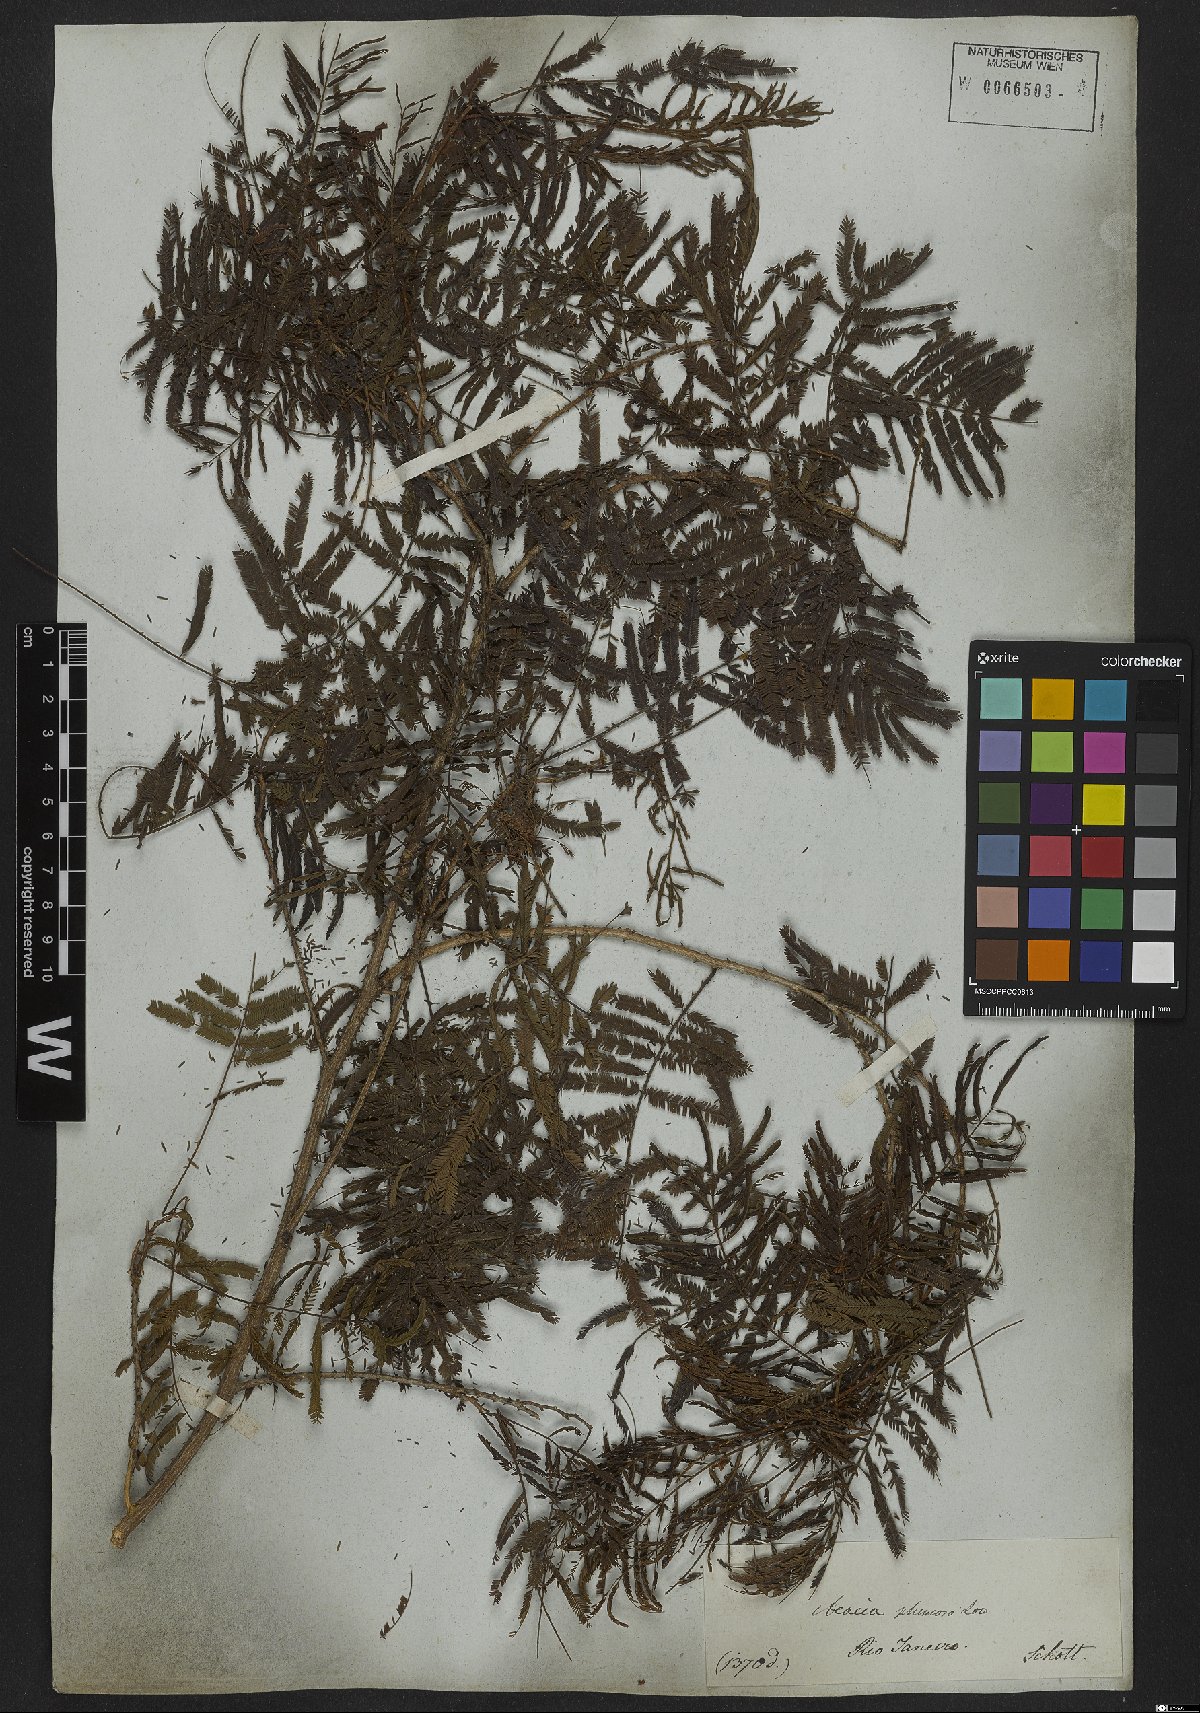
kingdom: Plantae
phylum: Tracheophyta
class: Magnoliopsida
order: Fabales
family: Fabaceae
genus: Senegalia
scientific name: Senegalia lowei
